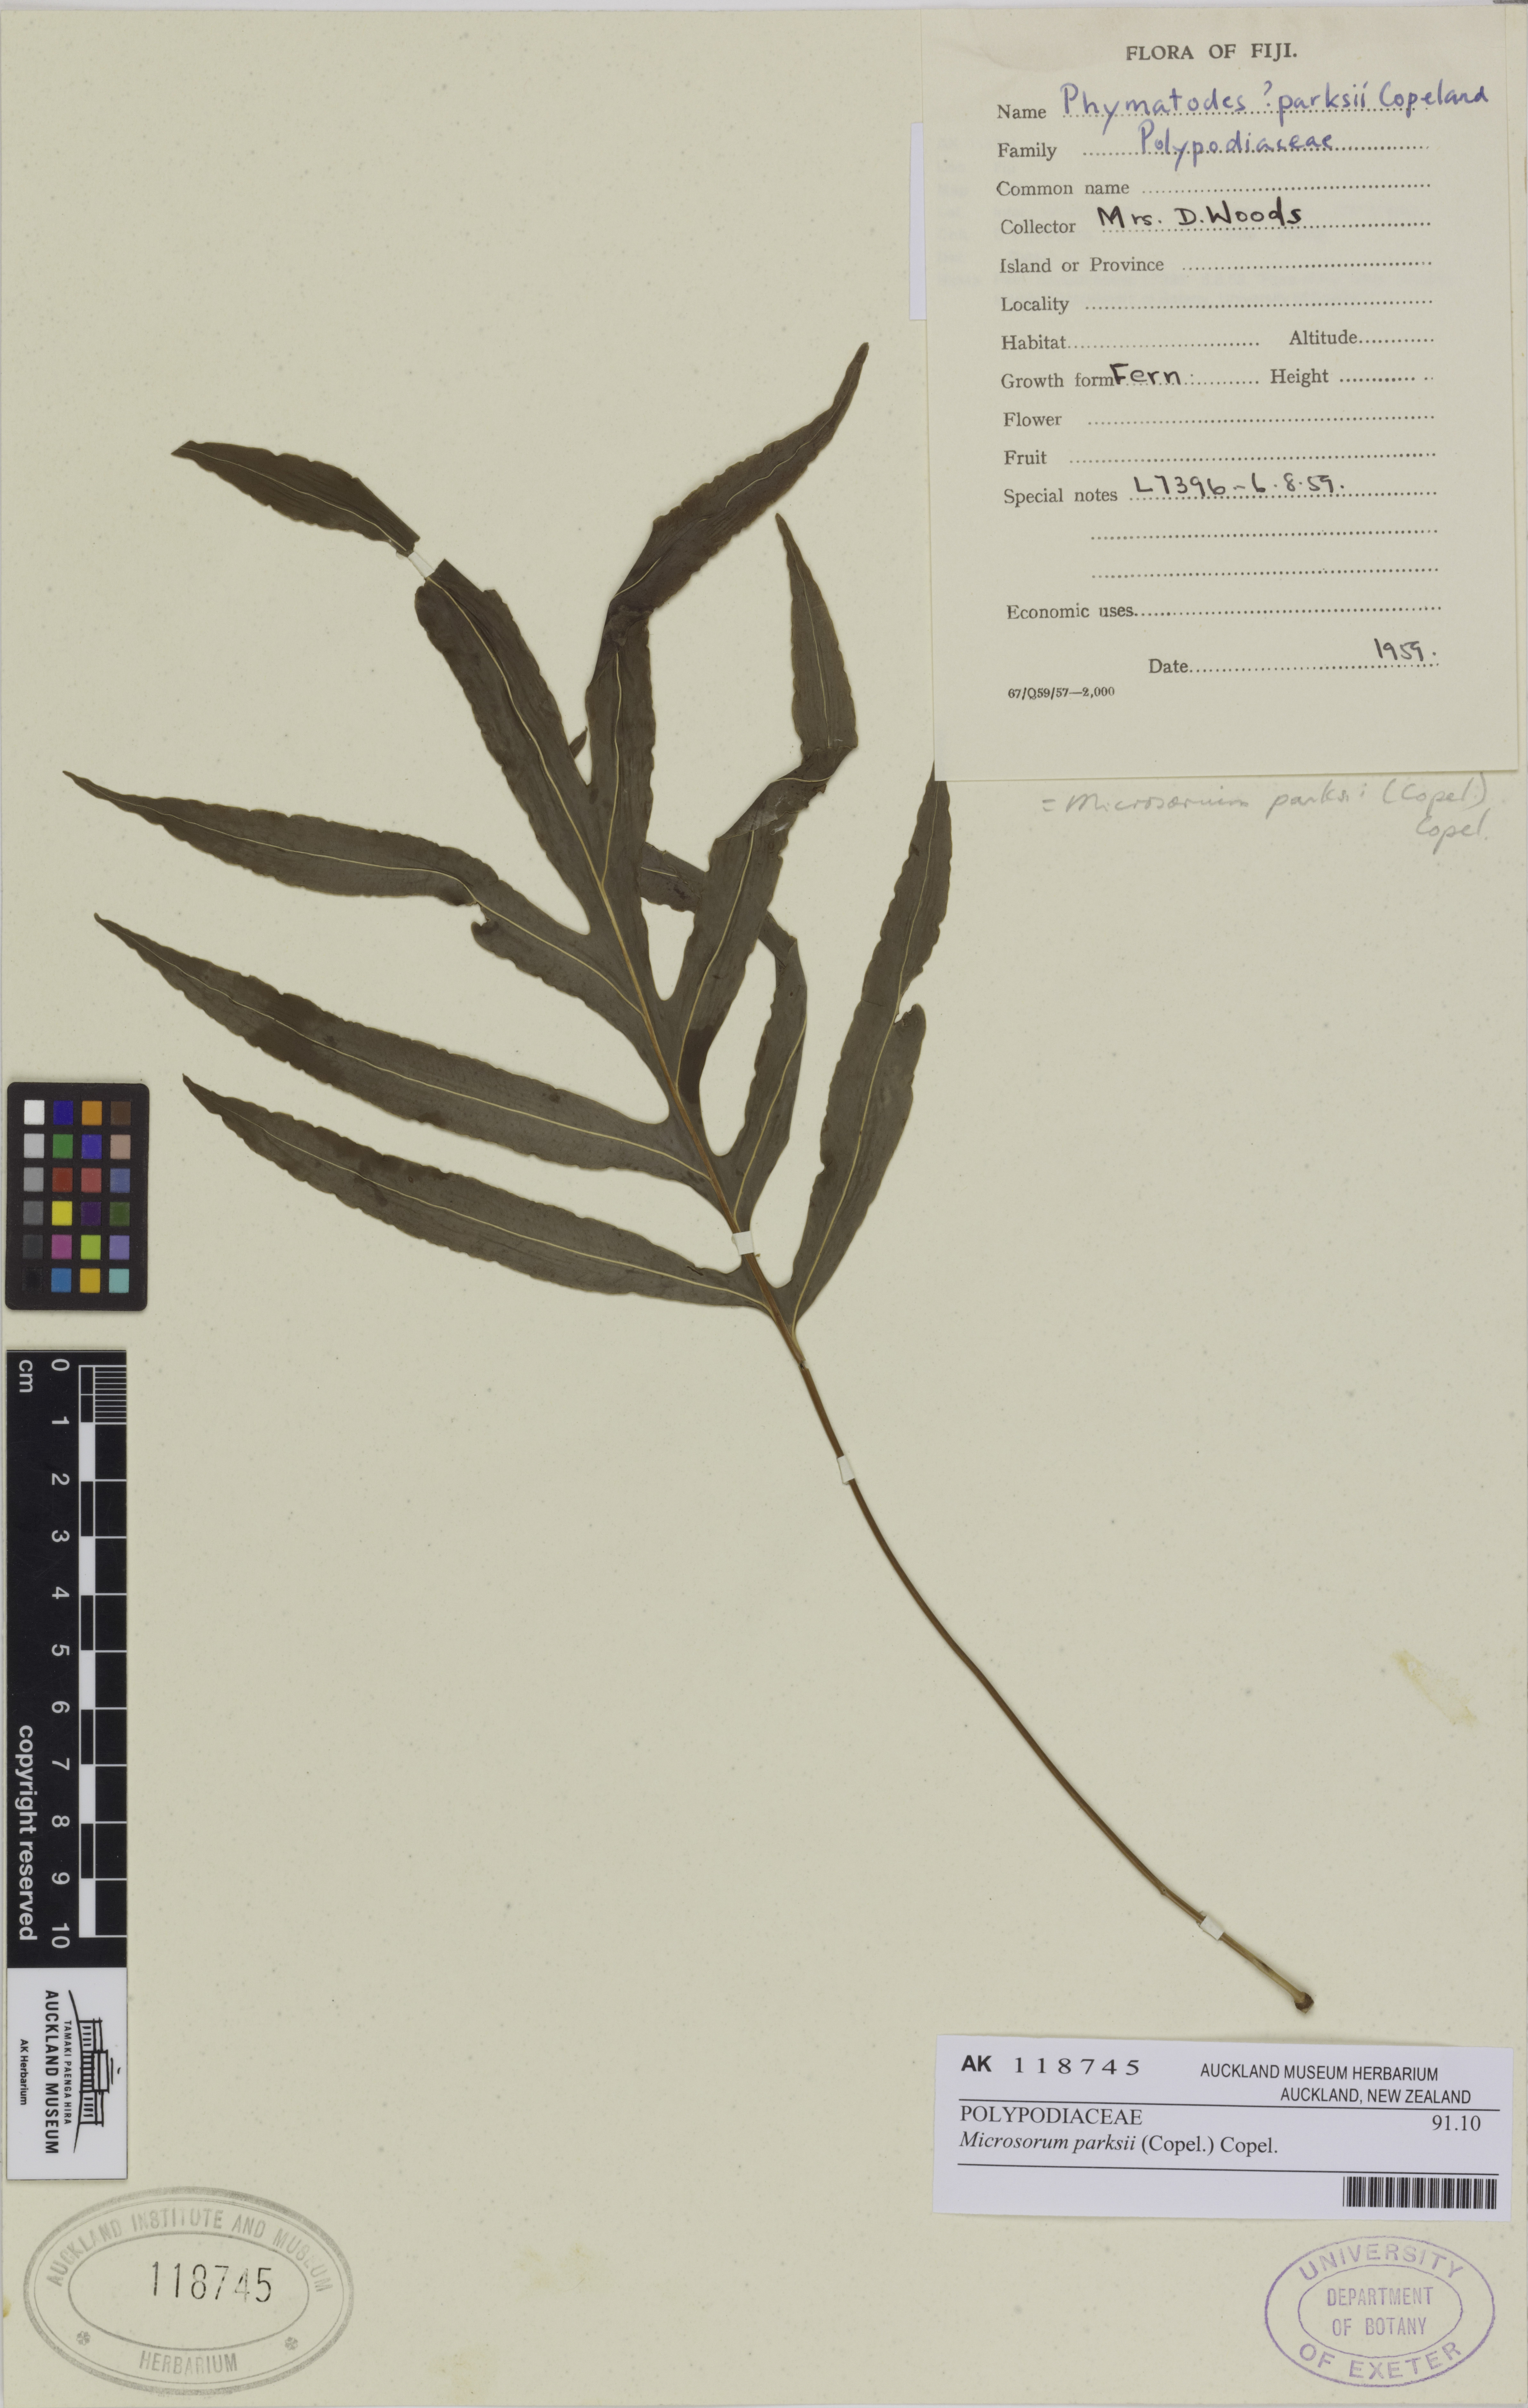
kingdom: Plantae
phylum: Tracheophyta
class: Polypodiopsida
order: Polypodiales
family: Polypodiaceae
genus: Microsorum
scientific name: Microsorum powellii
